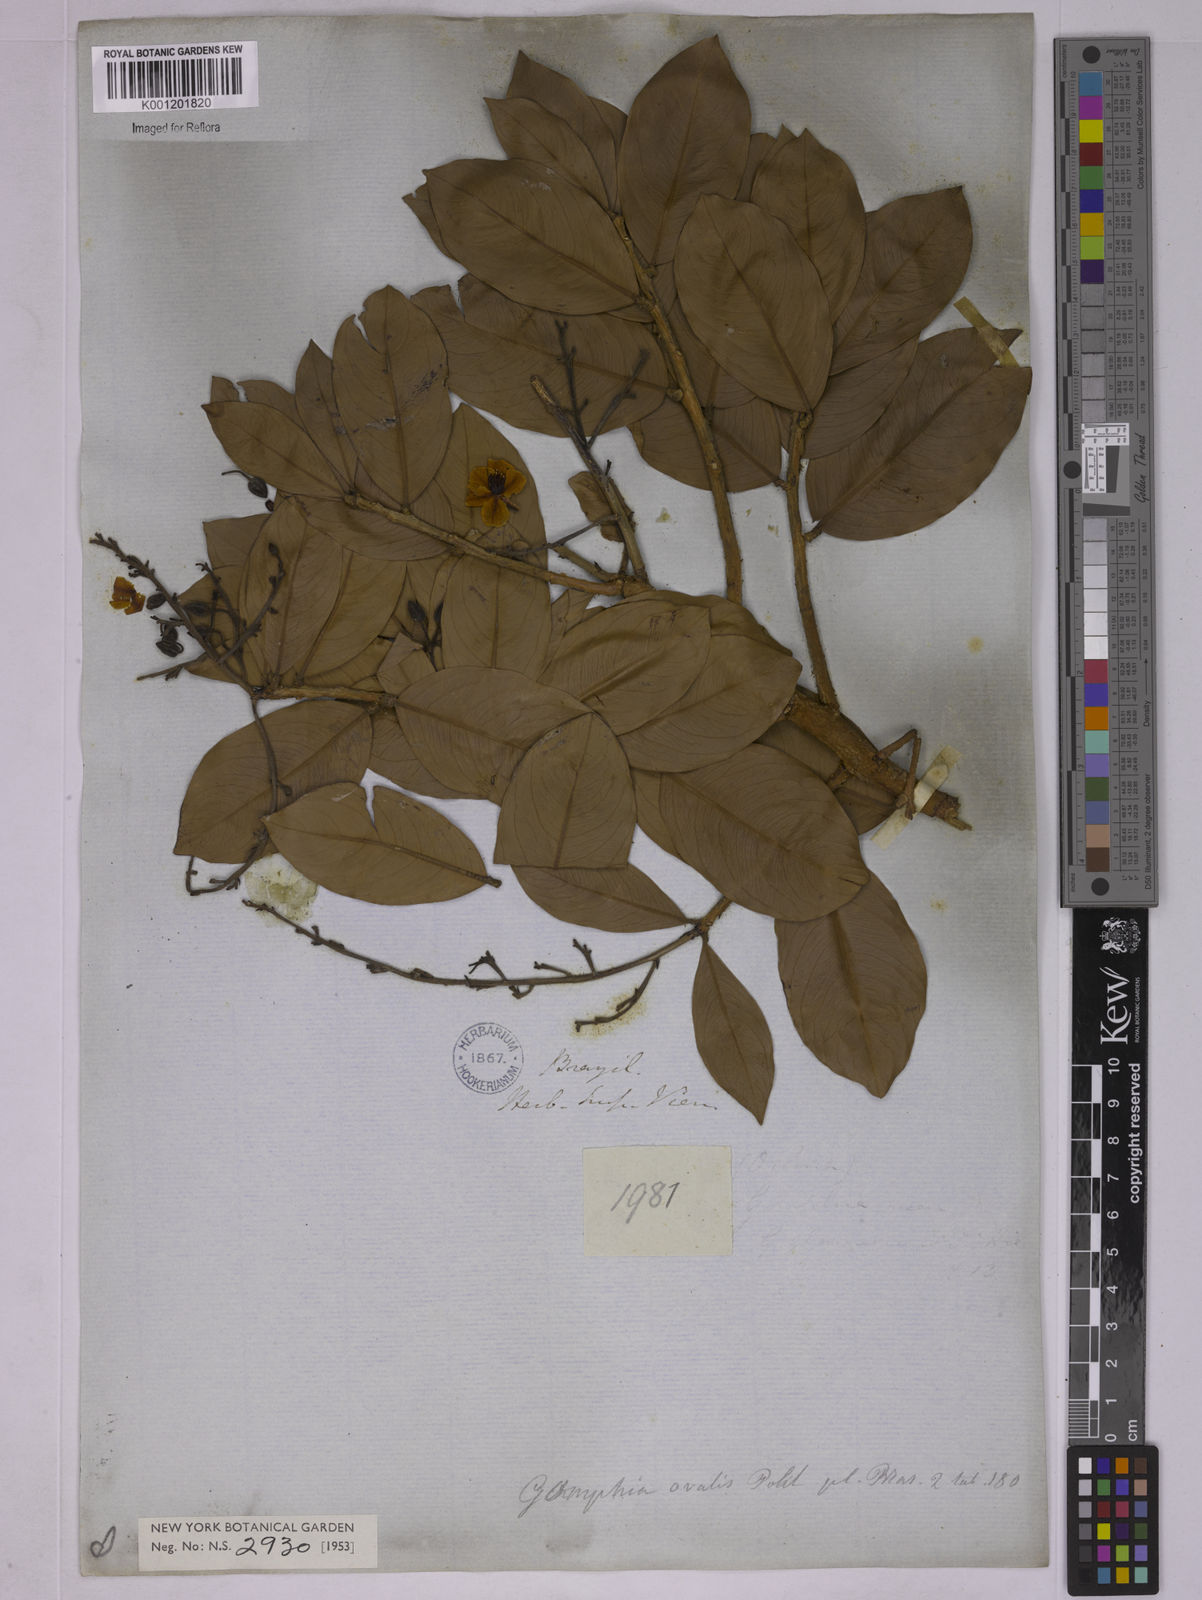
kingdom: Plantae
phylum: Tracheophyta
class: Magnoliopsida
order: Malpighiales
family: Ochnaceae
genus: Ouratea
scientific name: Ouratea ovalis
